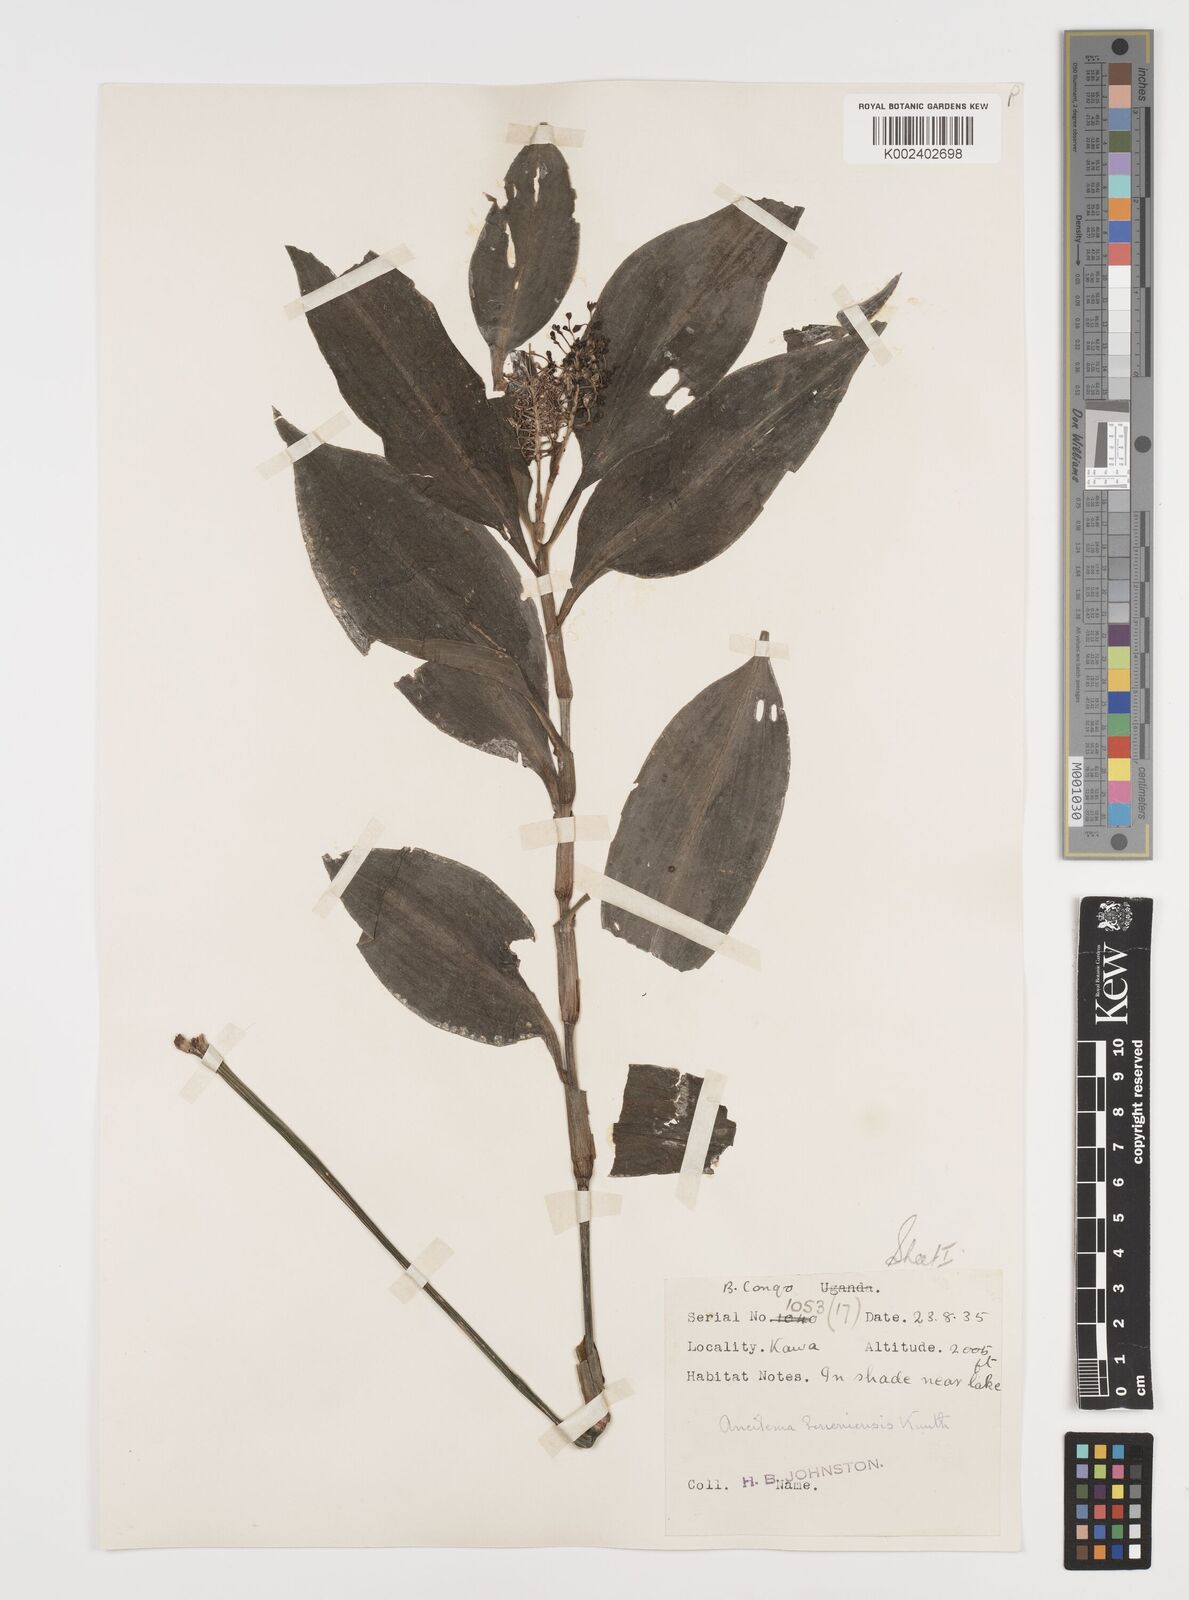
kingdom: Plantae
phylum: Tracheophyta
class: Liliopsida
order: Commelinales
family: Commelinaceae
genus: Aneilema
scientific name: Aneilema beniniense
